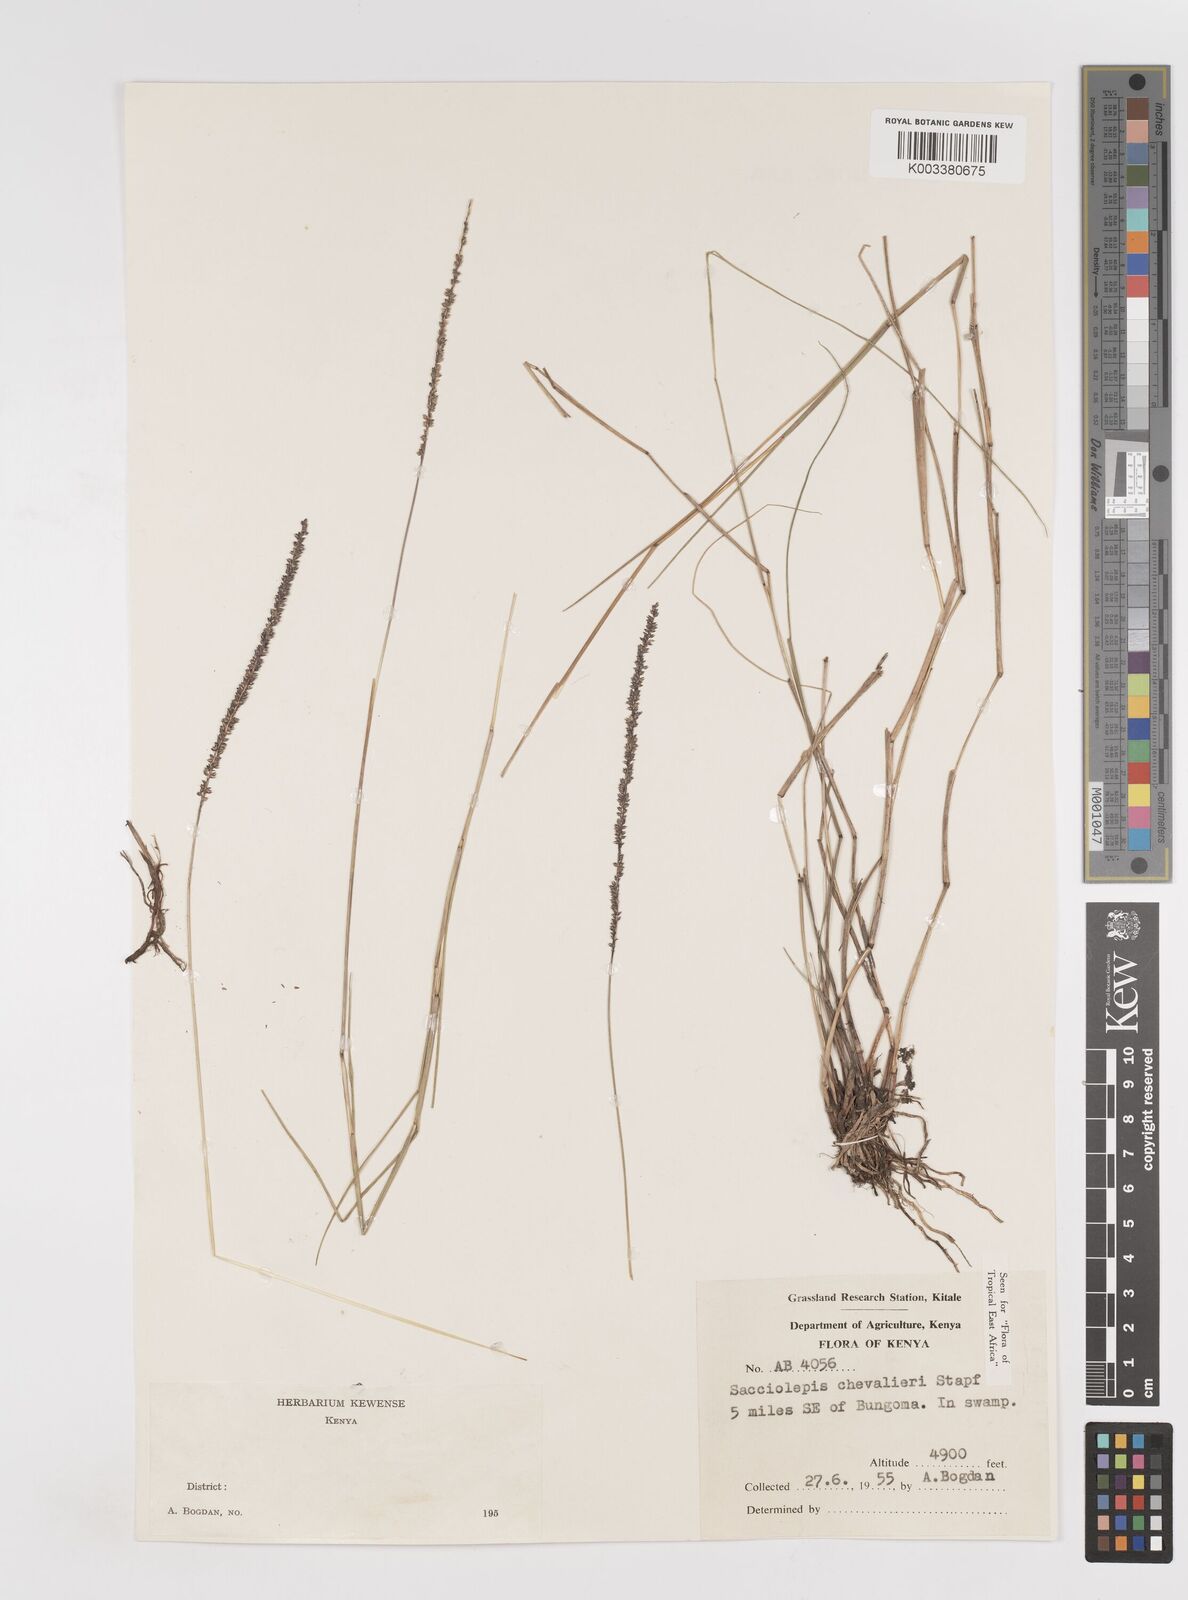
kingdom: Plantae
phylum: Tracheophyta
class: Liliopsida
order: Poales
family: Poaceae
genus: Sacciolepis
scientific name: Sacciolepis chevalieri
